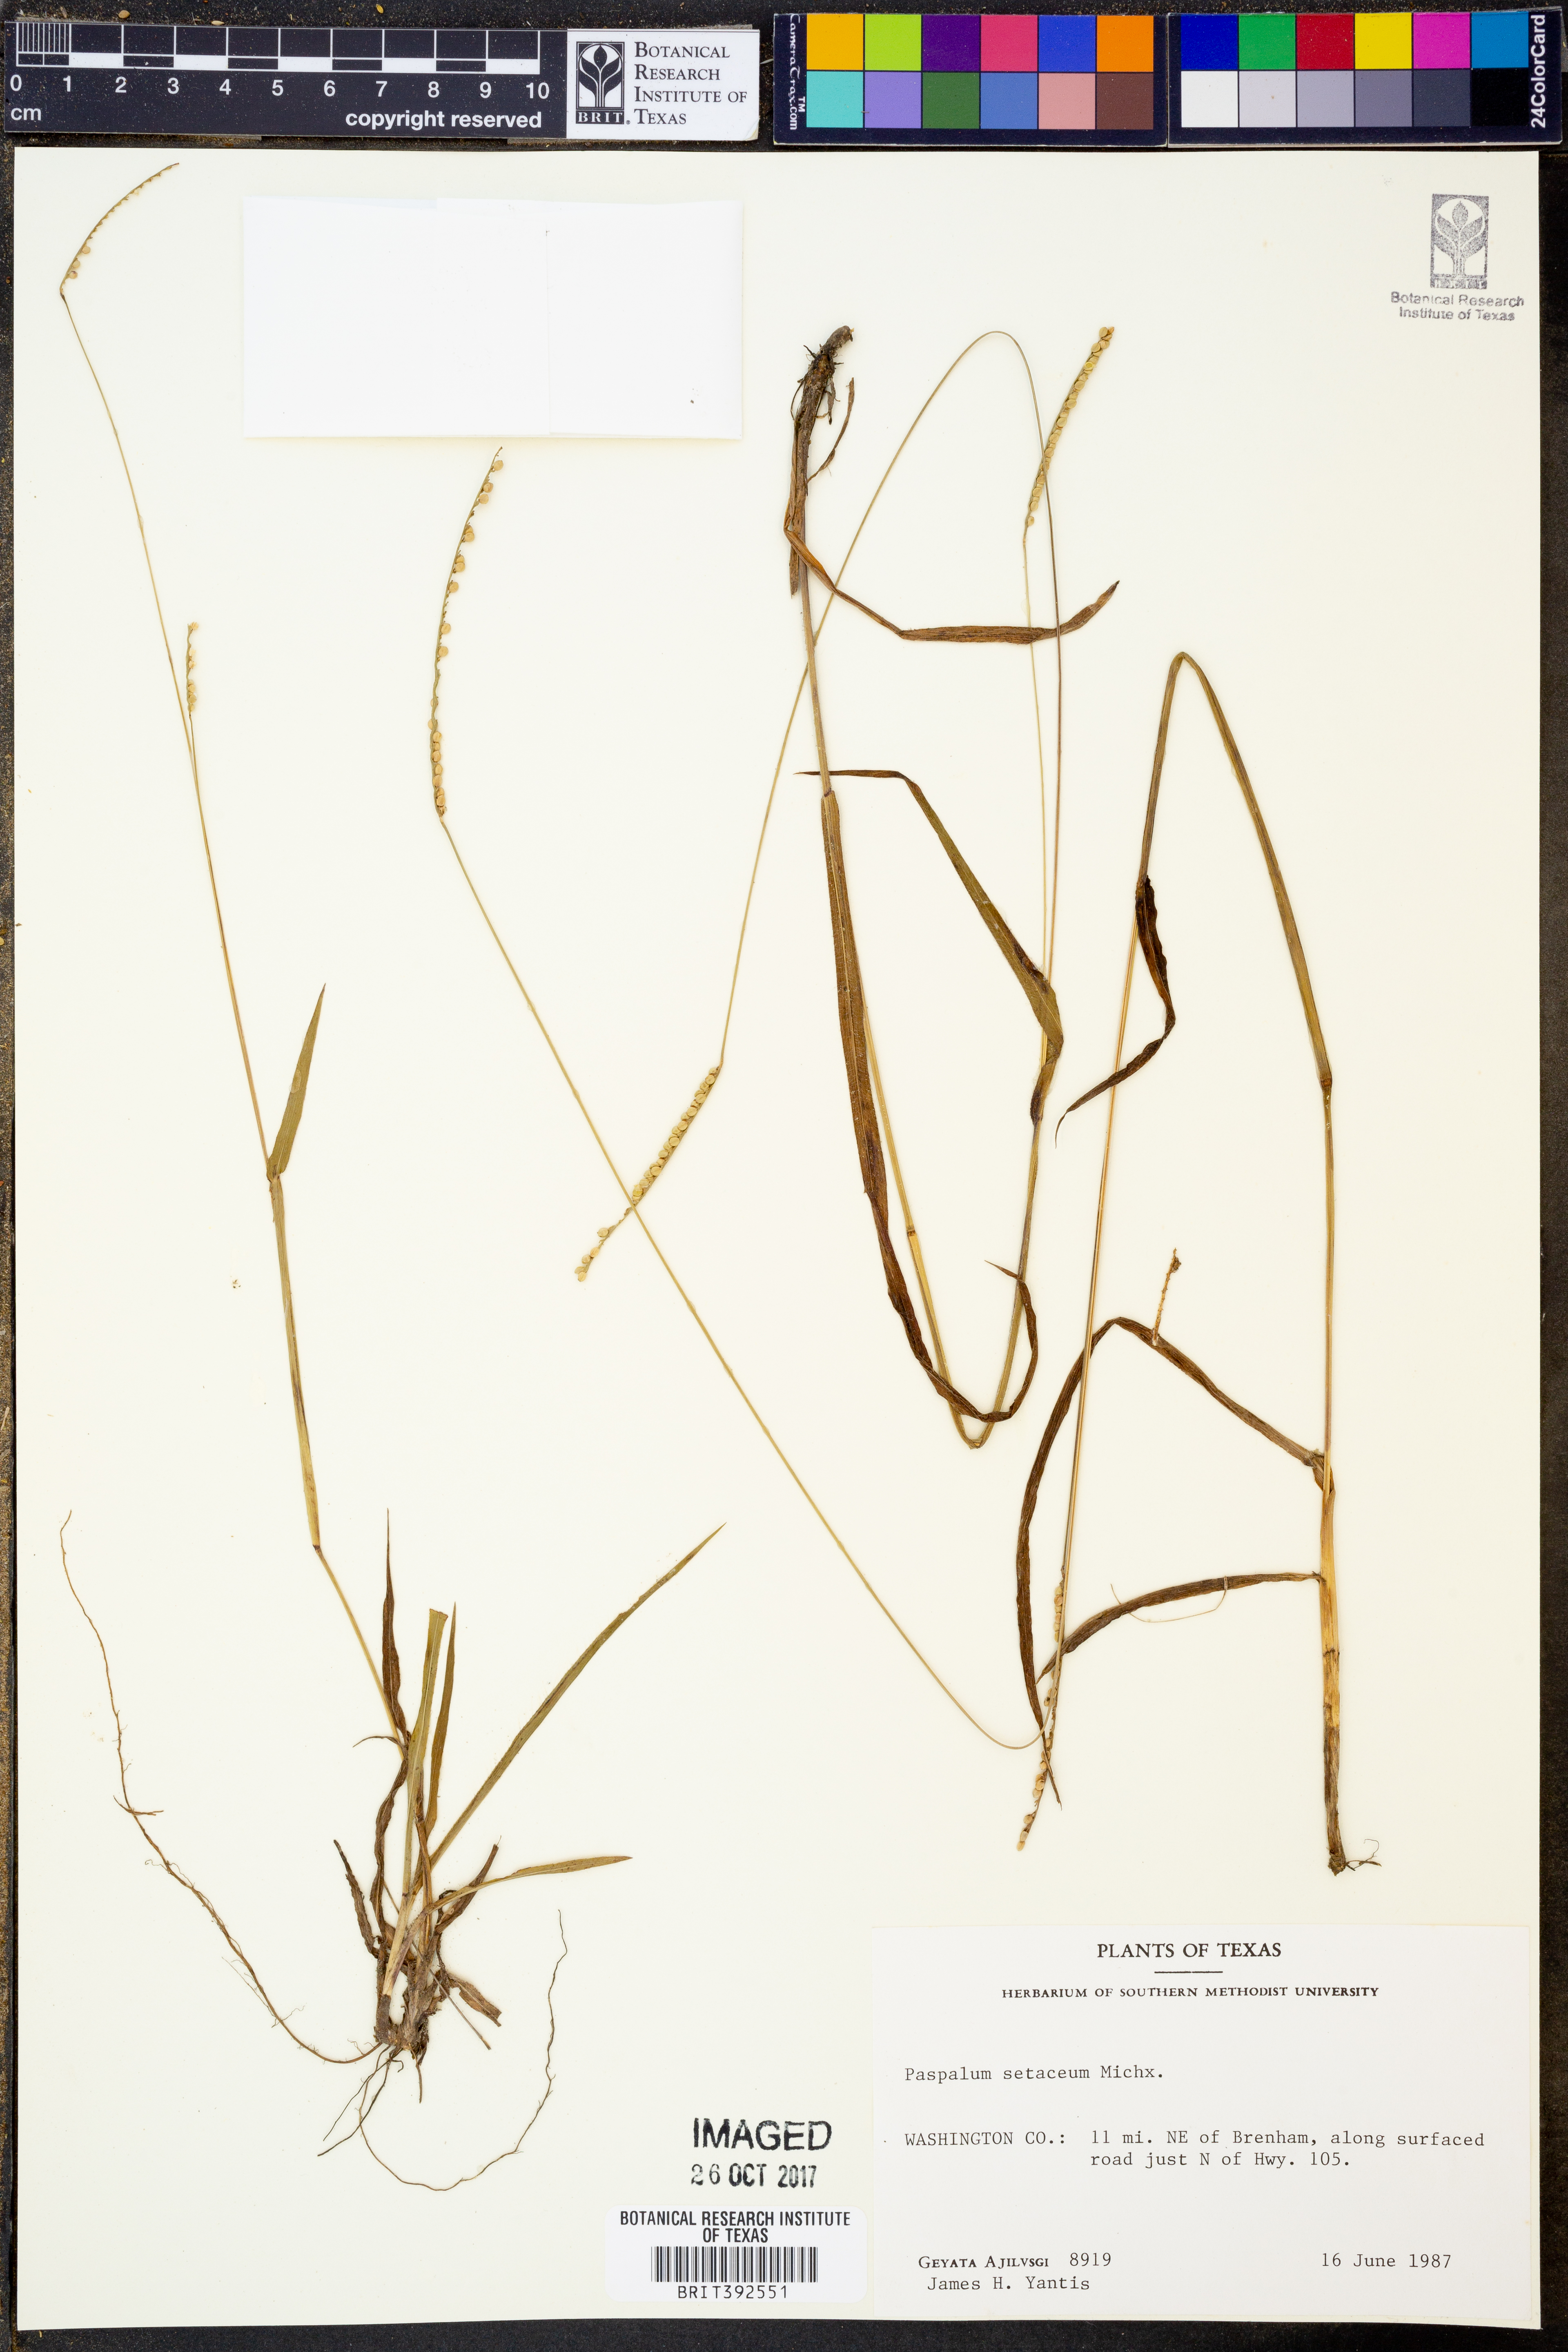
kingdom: Plantae
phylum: Tracheophyta
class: Liliopsida
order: Poales
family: Poaceae
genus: Paspalum
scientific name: Paspalum setaceum
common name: Slender paspalum
